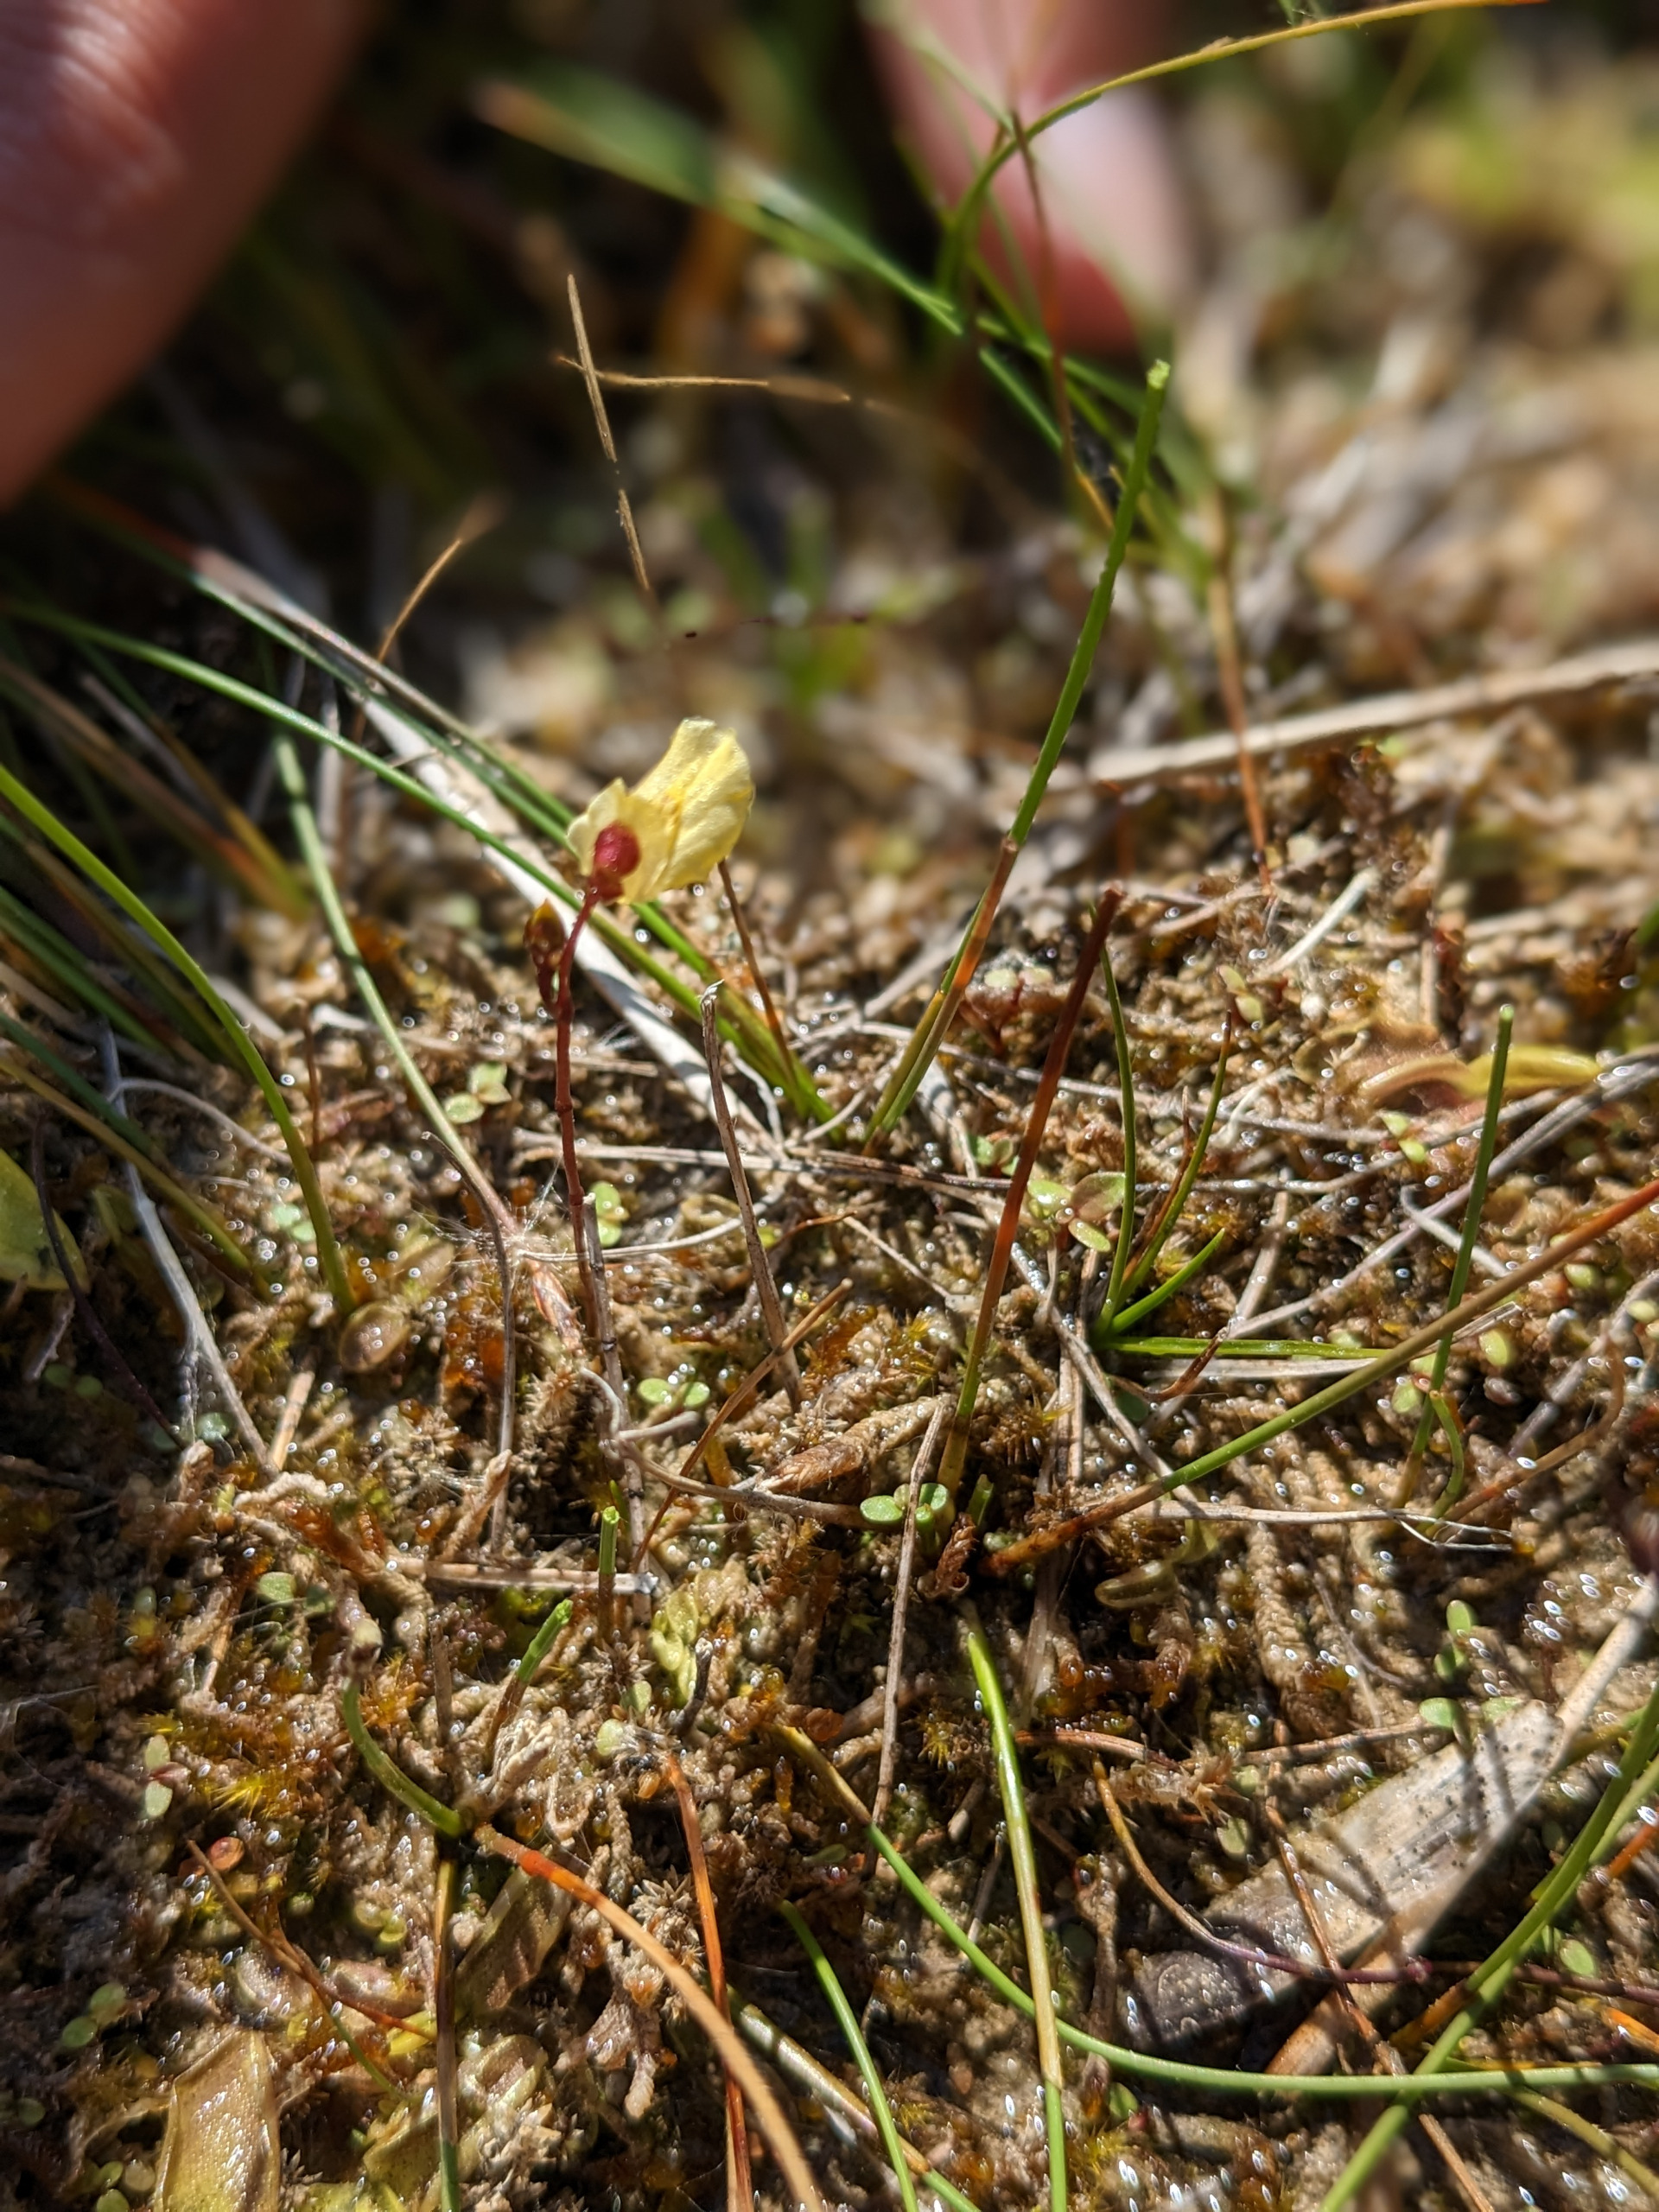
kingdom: Plantae
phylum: Tracheophyta
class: Magnoliopsida
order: Lamiales
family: Lentibulariaceae
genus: Utricularia
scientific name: Utricularia minor
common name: Liden blærerod
